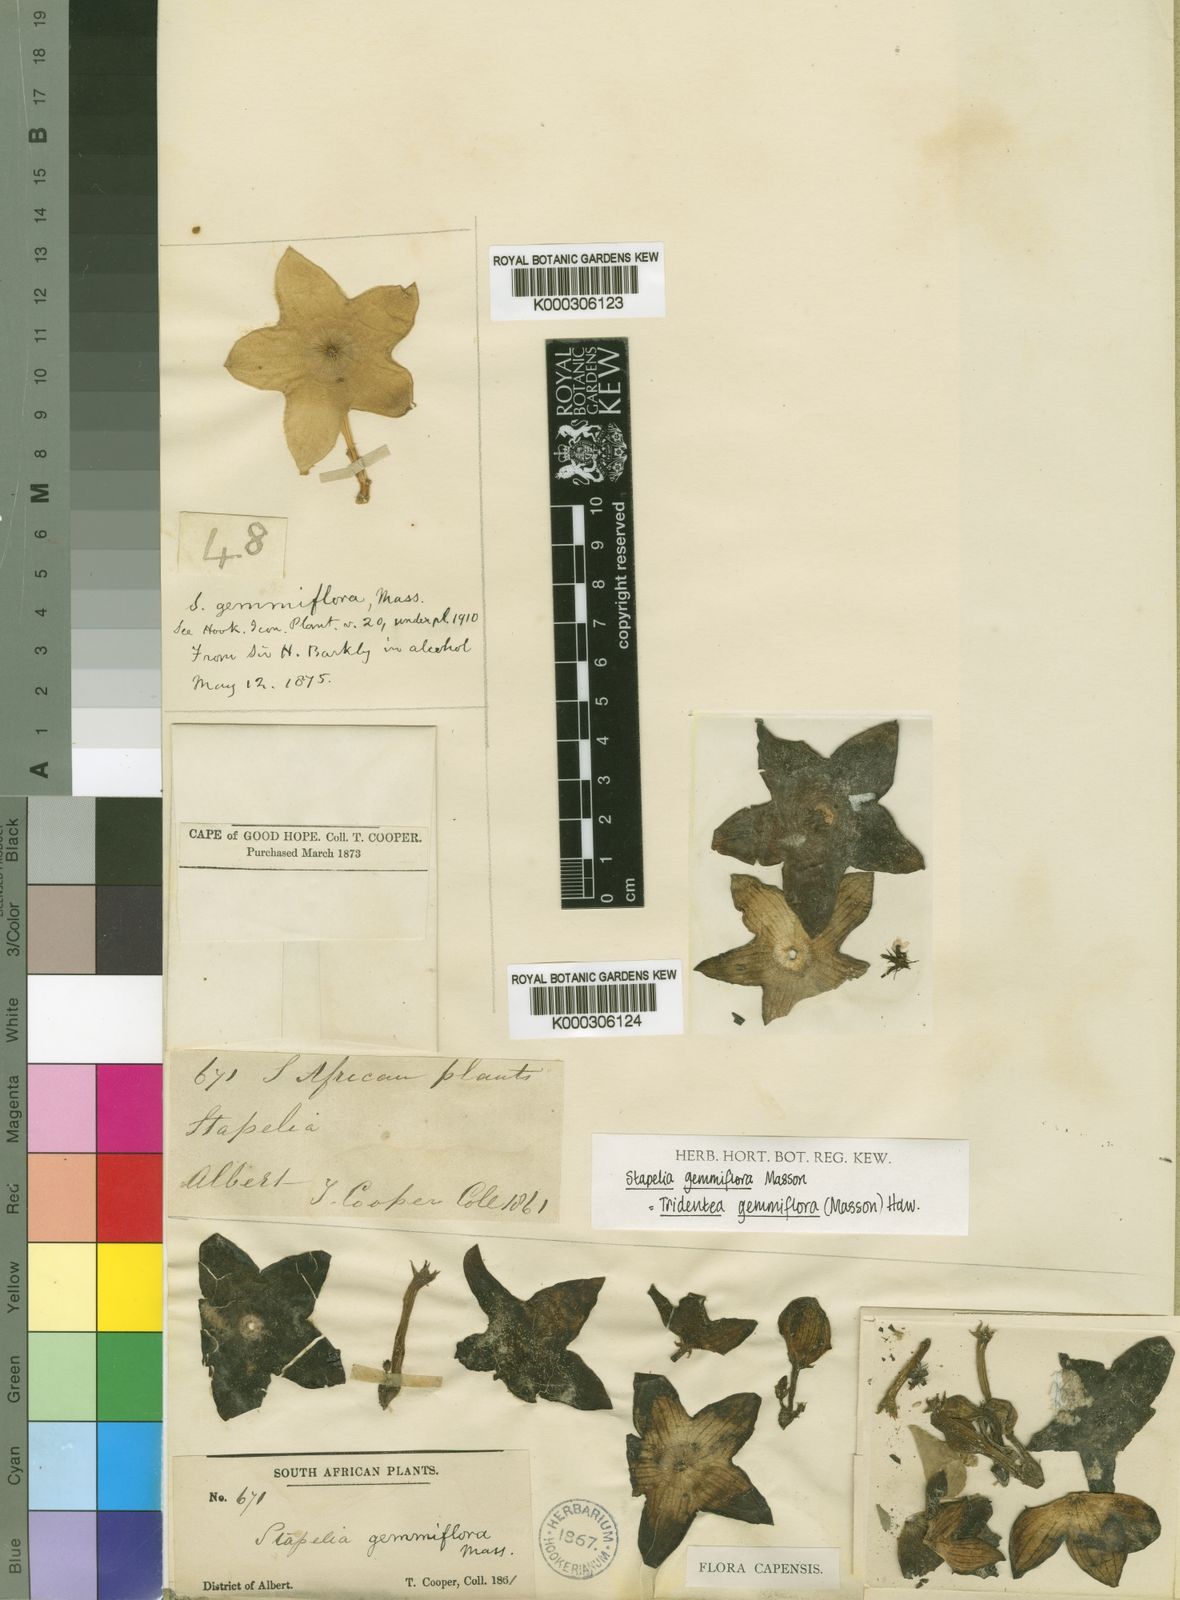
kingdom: Plantae
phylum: Tracheophyta
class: Magnoliopsida
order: Gentianales
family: Apocynaceae
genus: Ceropegia
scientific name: Ceropegia gemmiflora
